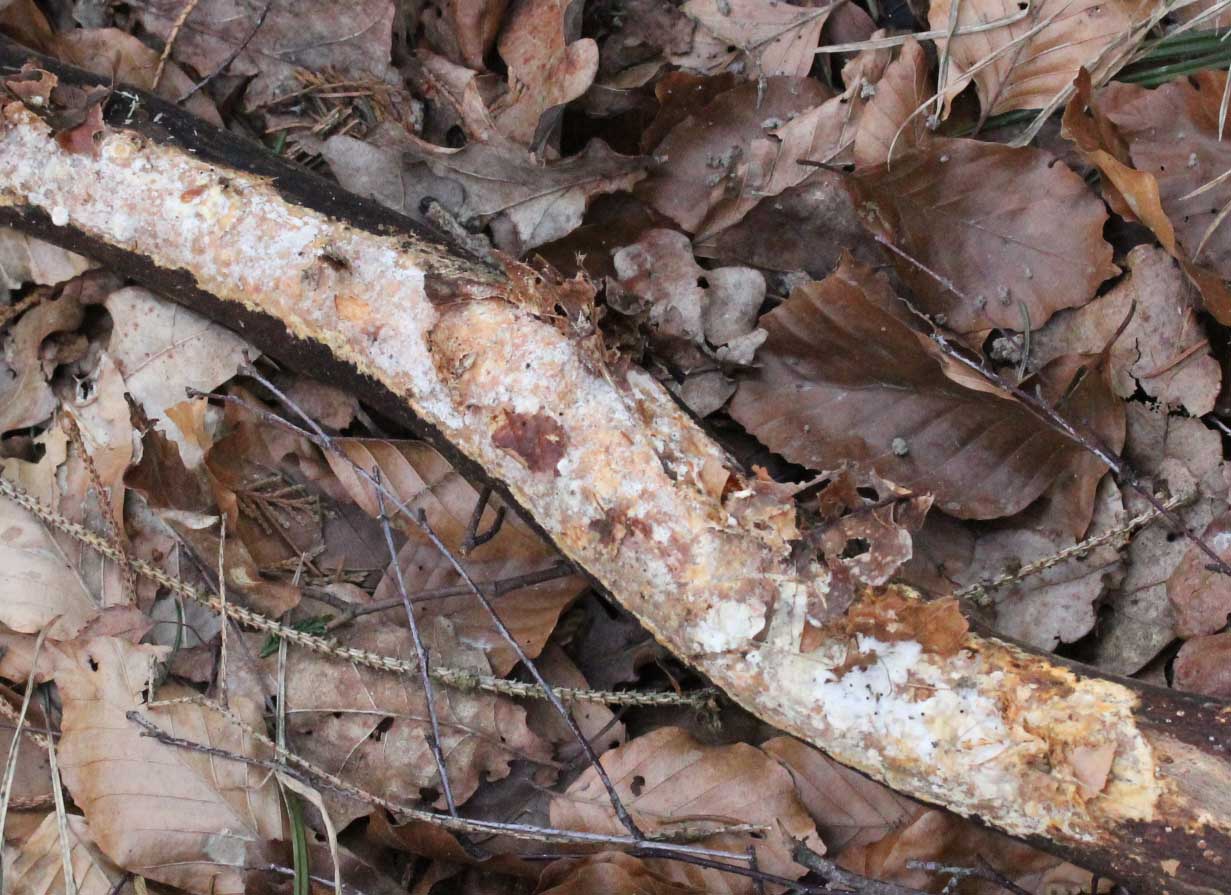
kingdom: Fungi
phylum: Basidiomycota
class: Agaricomycetes
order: Polyporales
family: Phanerochaetaceae
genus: Phanerochaete
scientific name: Phanerochaete velutina
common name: dunet randtråd
